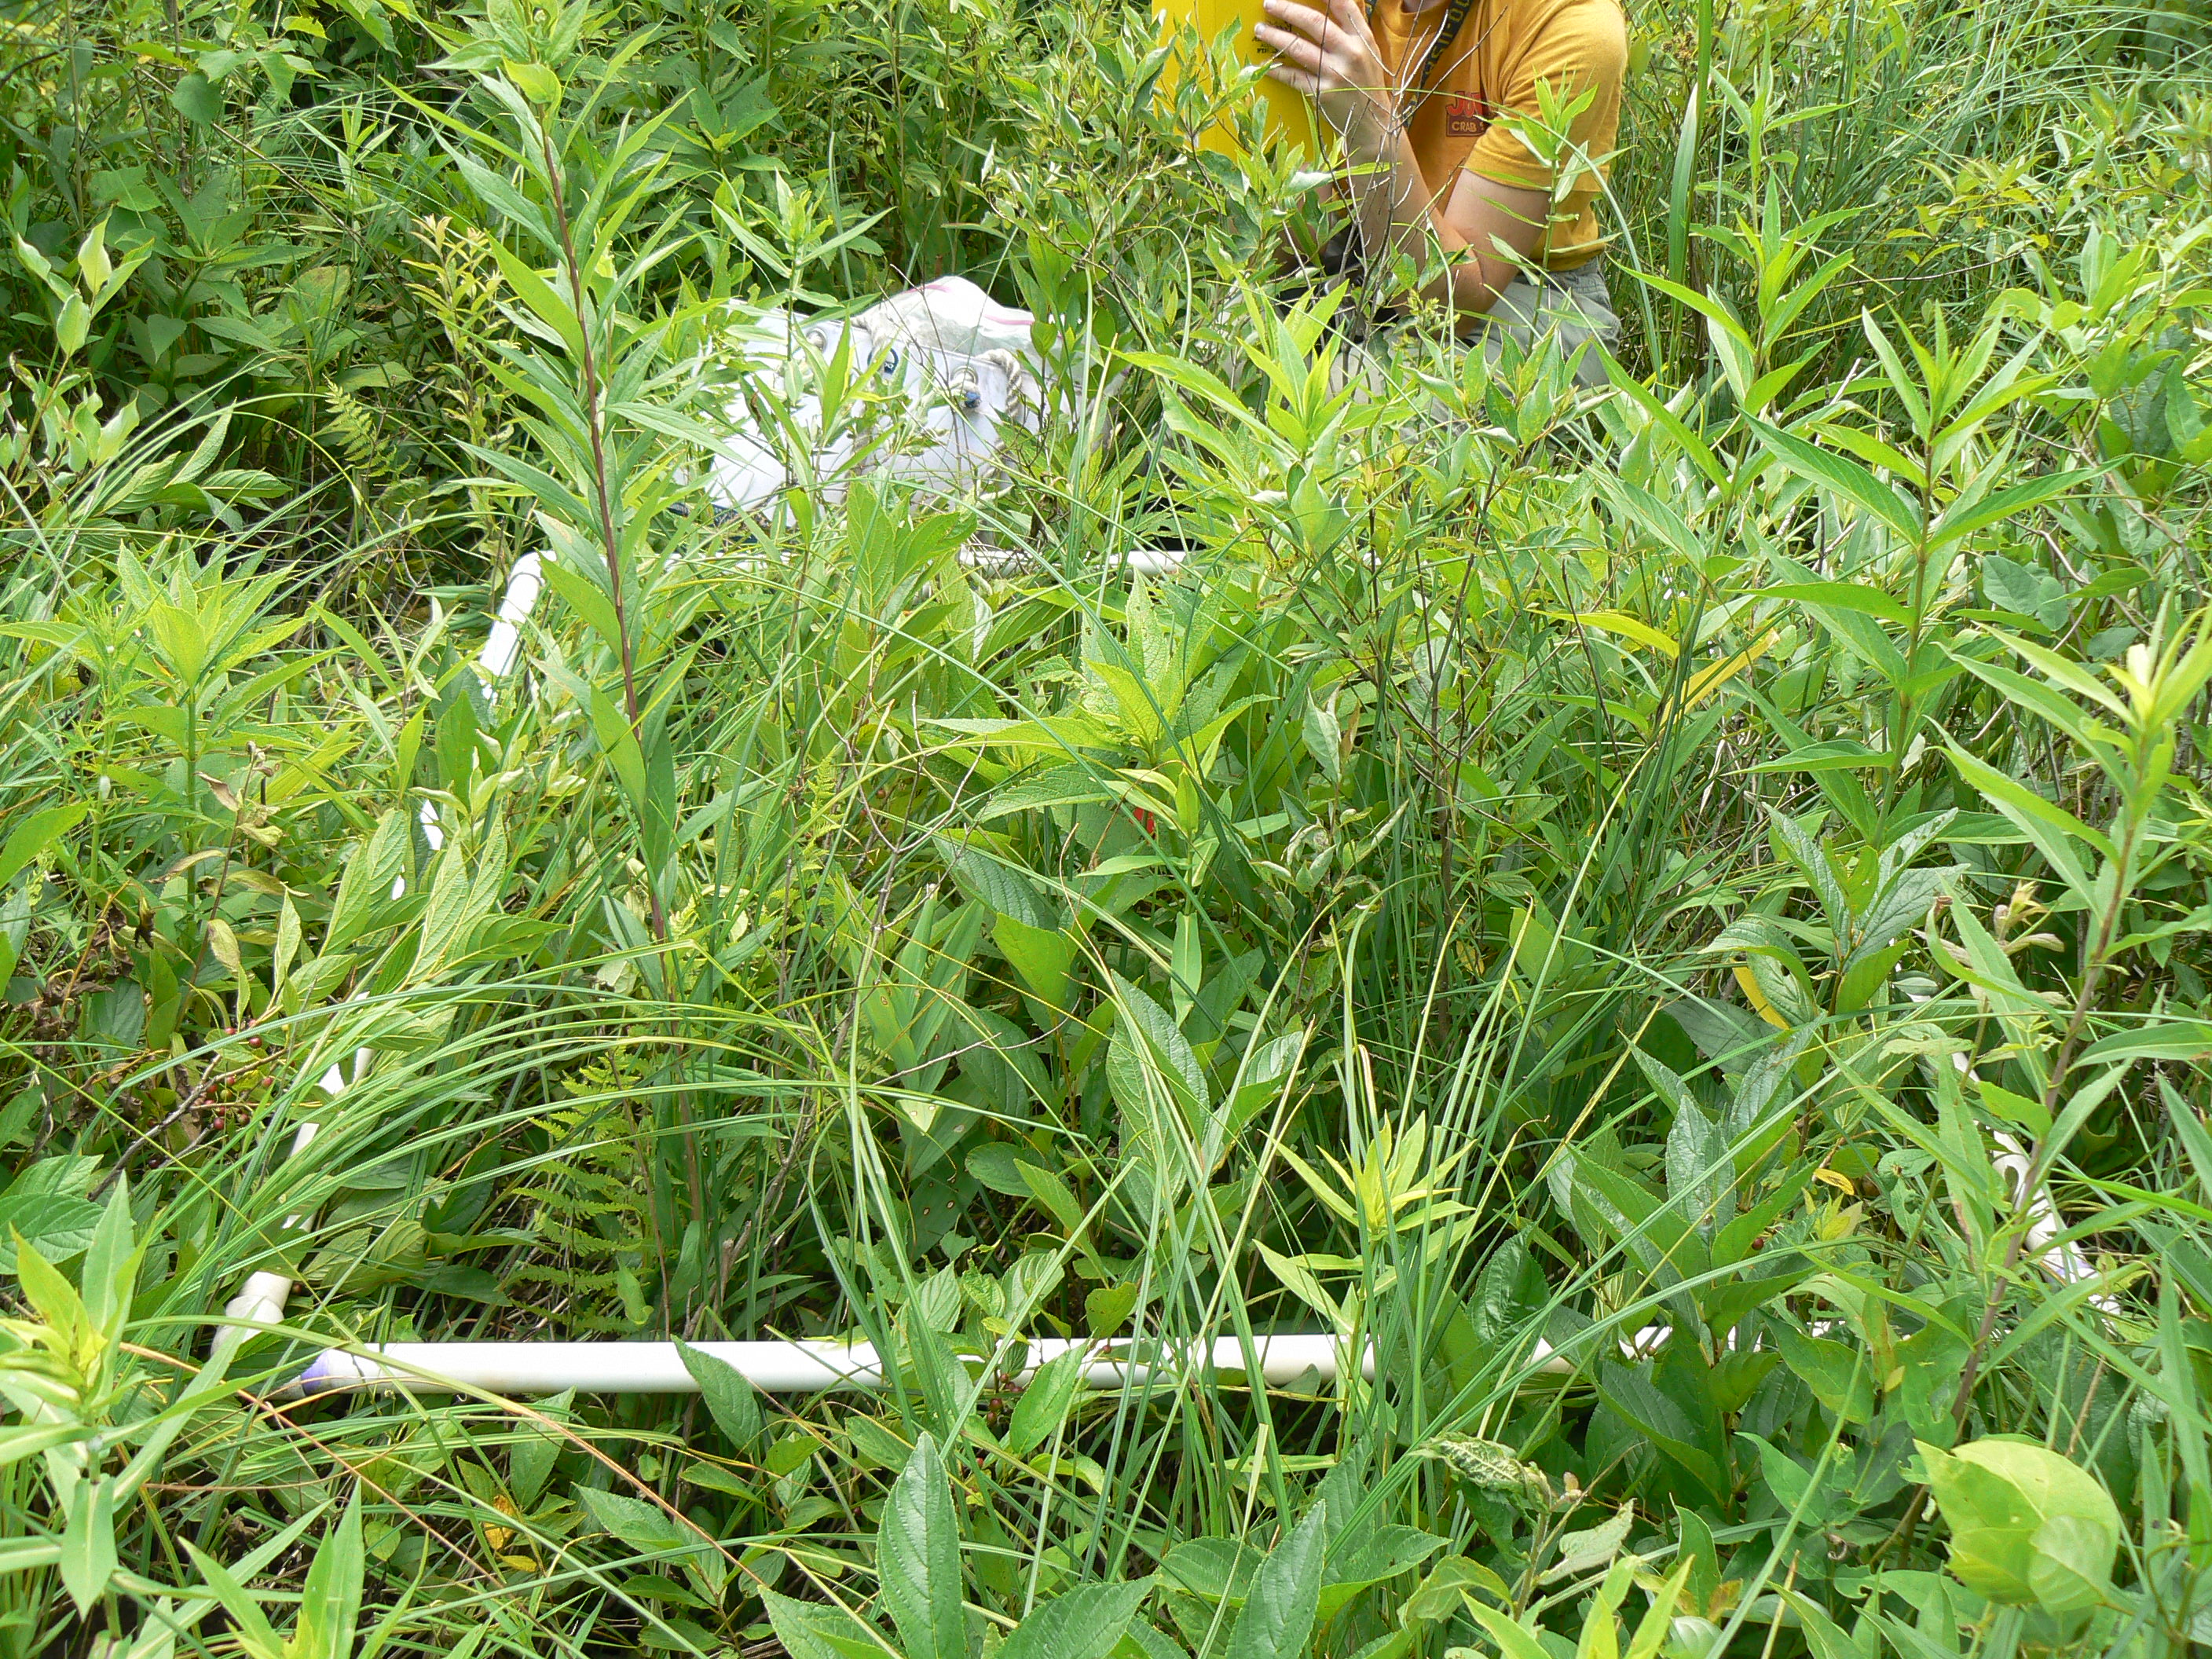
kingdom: Plantae
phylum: Tracheophyta
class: Magnoliopsida
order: Gentianales
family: Rubiaceae
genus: Galium
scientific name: Galium boreale
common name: Northern bedstraw
